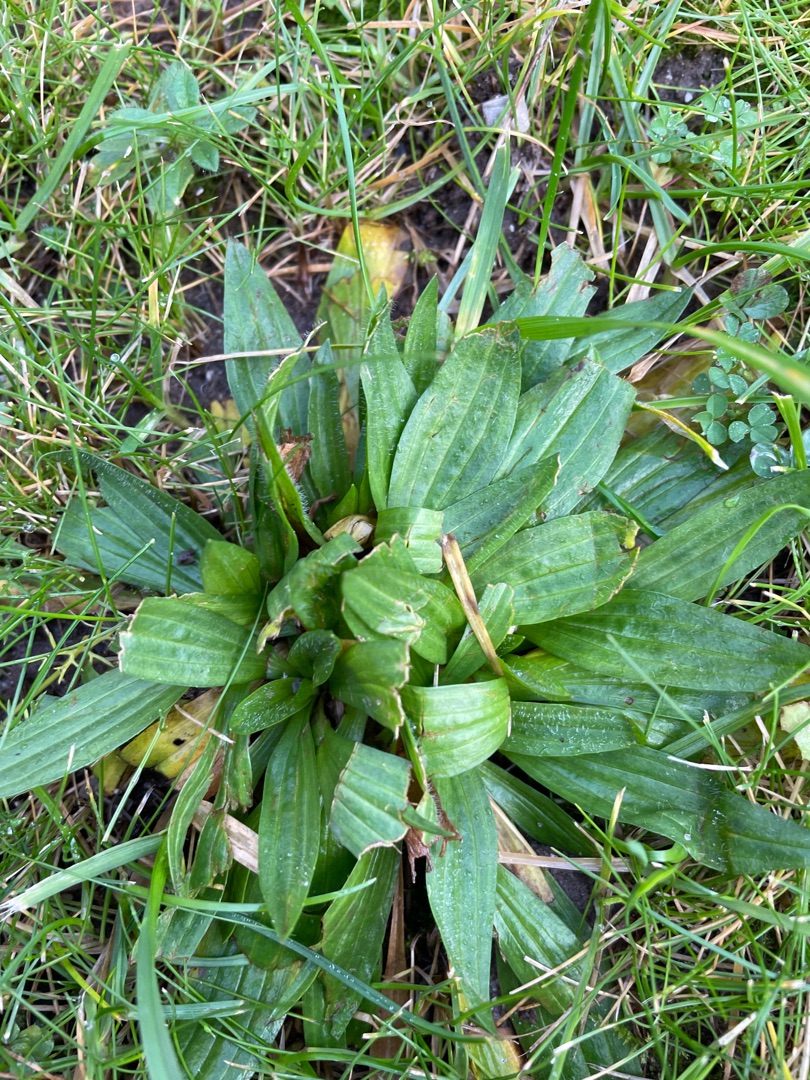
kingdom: Plantae
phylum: Tracheophyta
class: Magnoliopsida
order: Lamiales
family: Plantaginaceae
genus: Plantago
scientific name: Plantago lanceolata
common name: Lancet-vejbred
